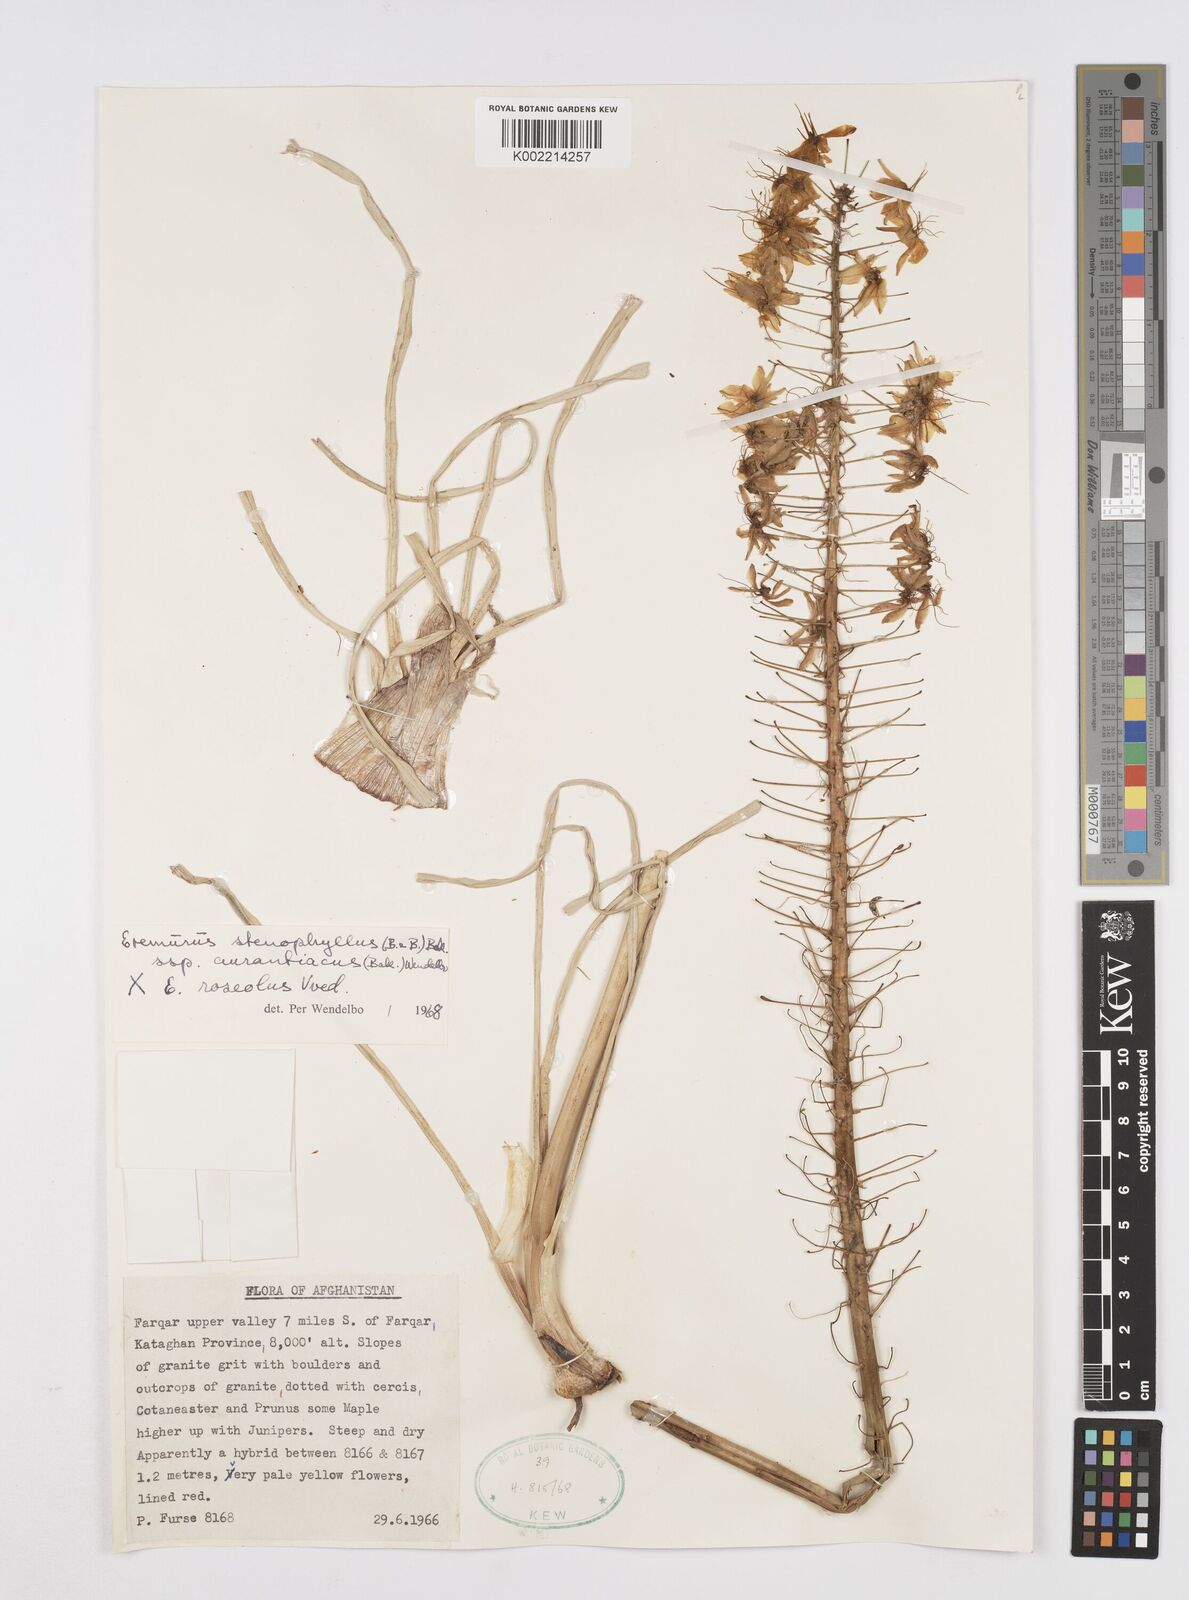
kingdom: Plantae
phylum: Tracheophyta
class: Liliopsida
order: Asparagales
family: Asphodelaceae
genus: Eremurus
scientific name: Eremurus stenophyllus
